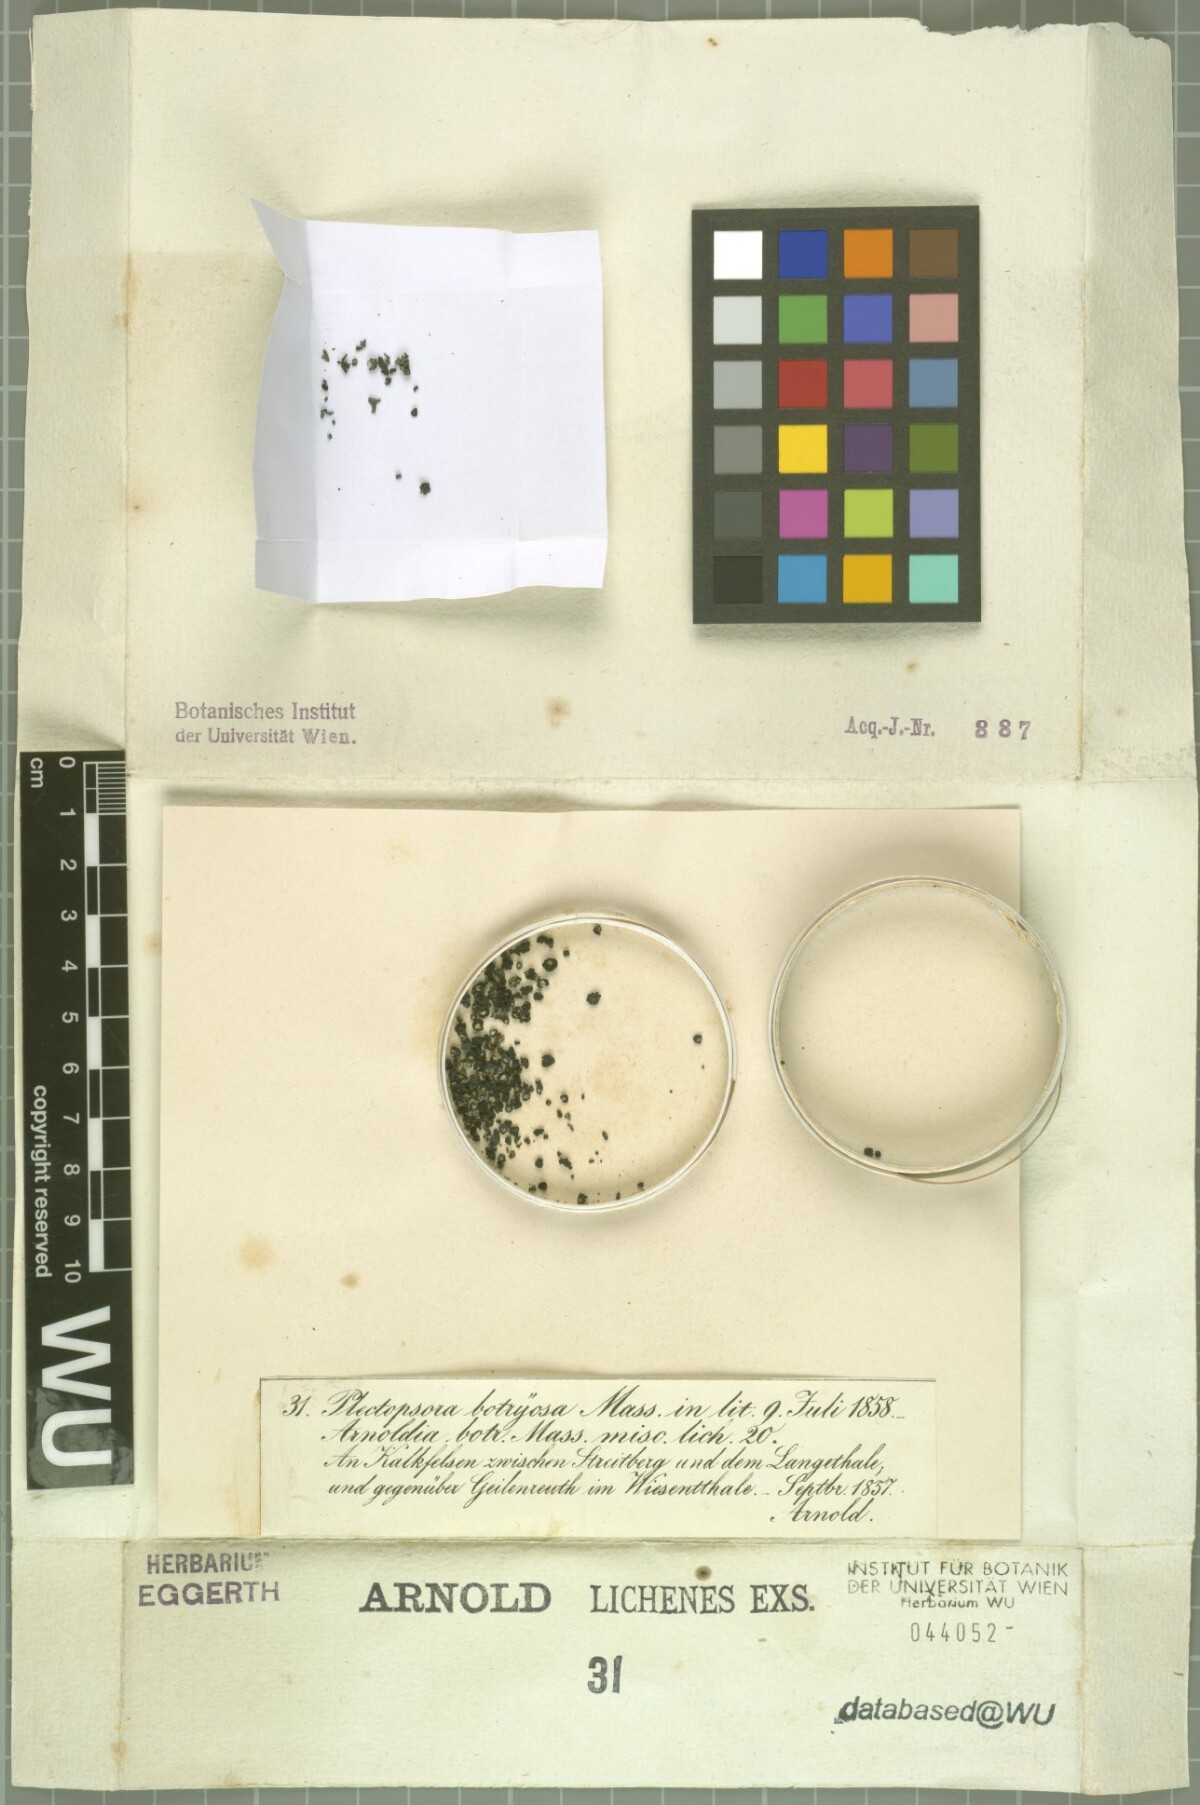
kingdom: Fungi
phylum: Ascomycota
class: Lichinomycetes
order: Lichinales
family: Lichinaceae
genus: Lempholemma
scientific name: Lempholemma botryosum
